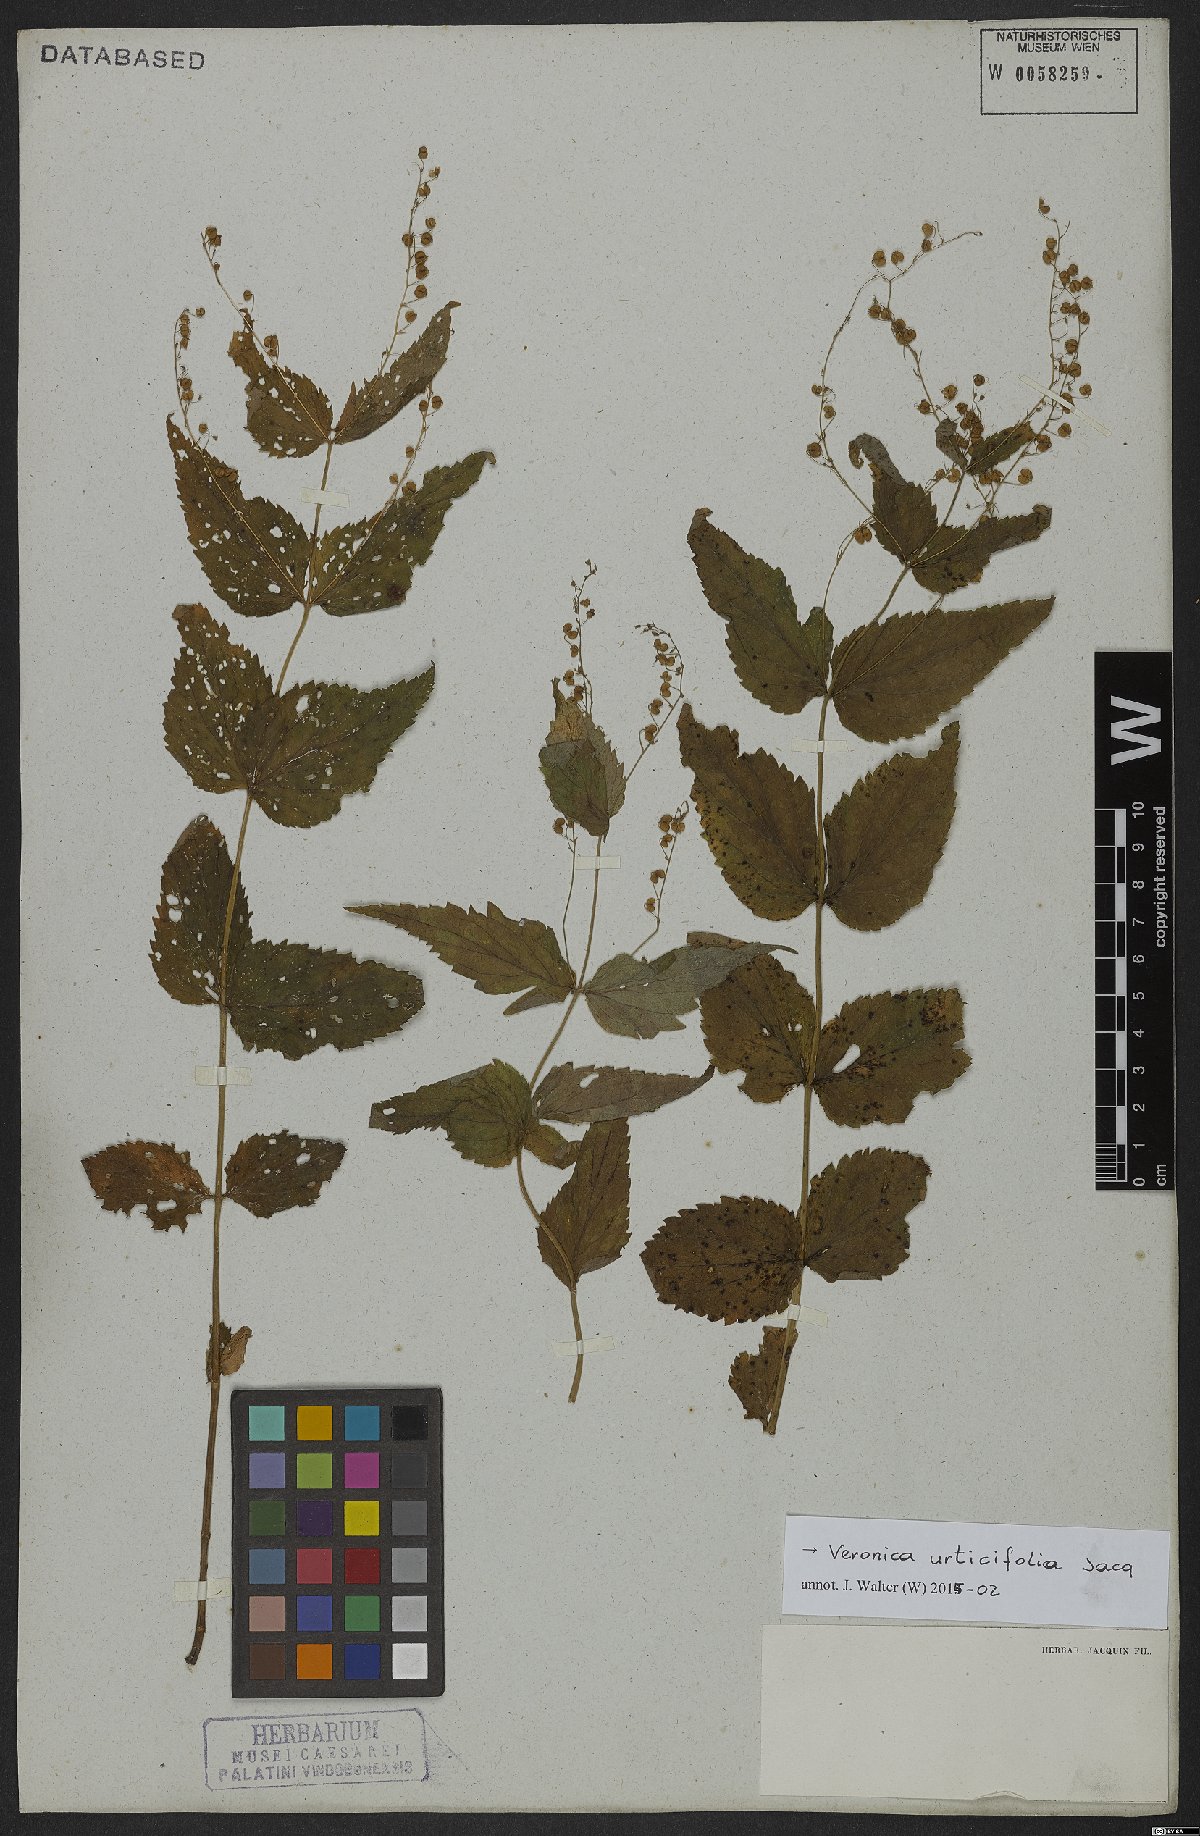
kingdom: Plantae
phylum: Tracheophyta
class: Magnoliopsida
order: Lamiales
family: Plantaginaceae
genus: Veronica
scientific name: Veronica urticifolia
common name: Nettle-leaf speedwell
